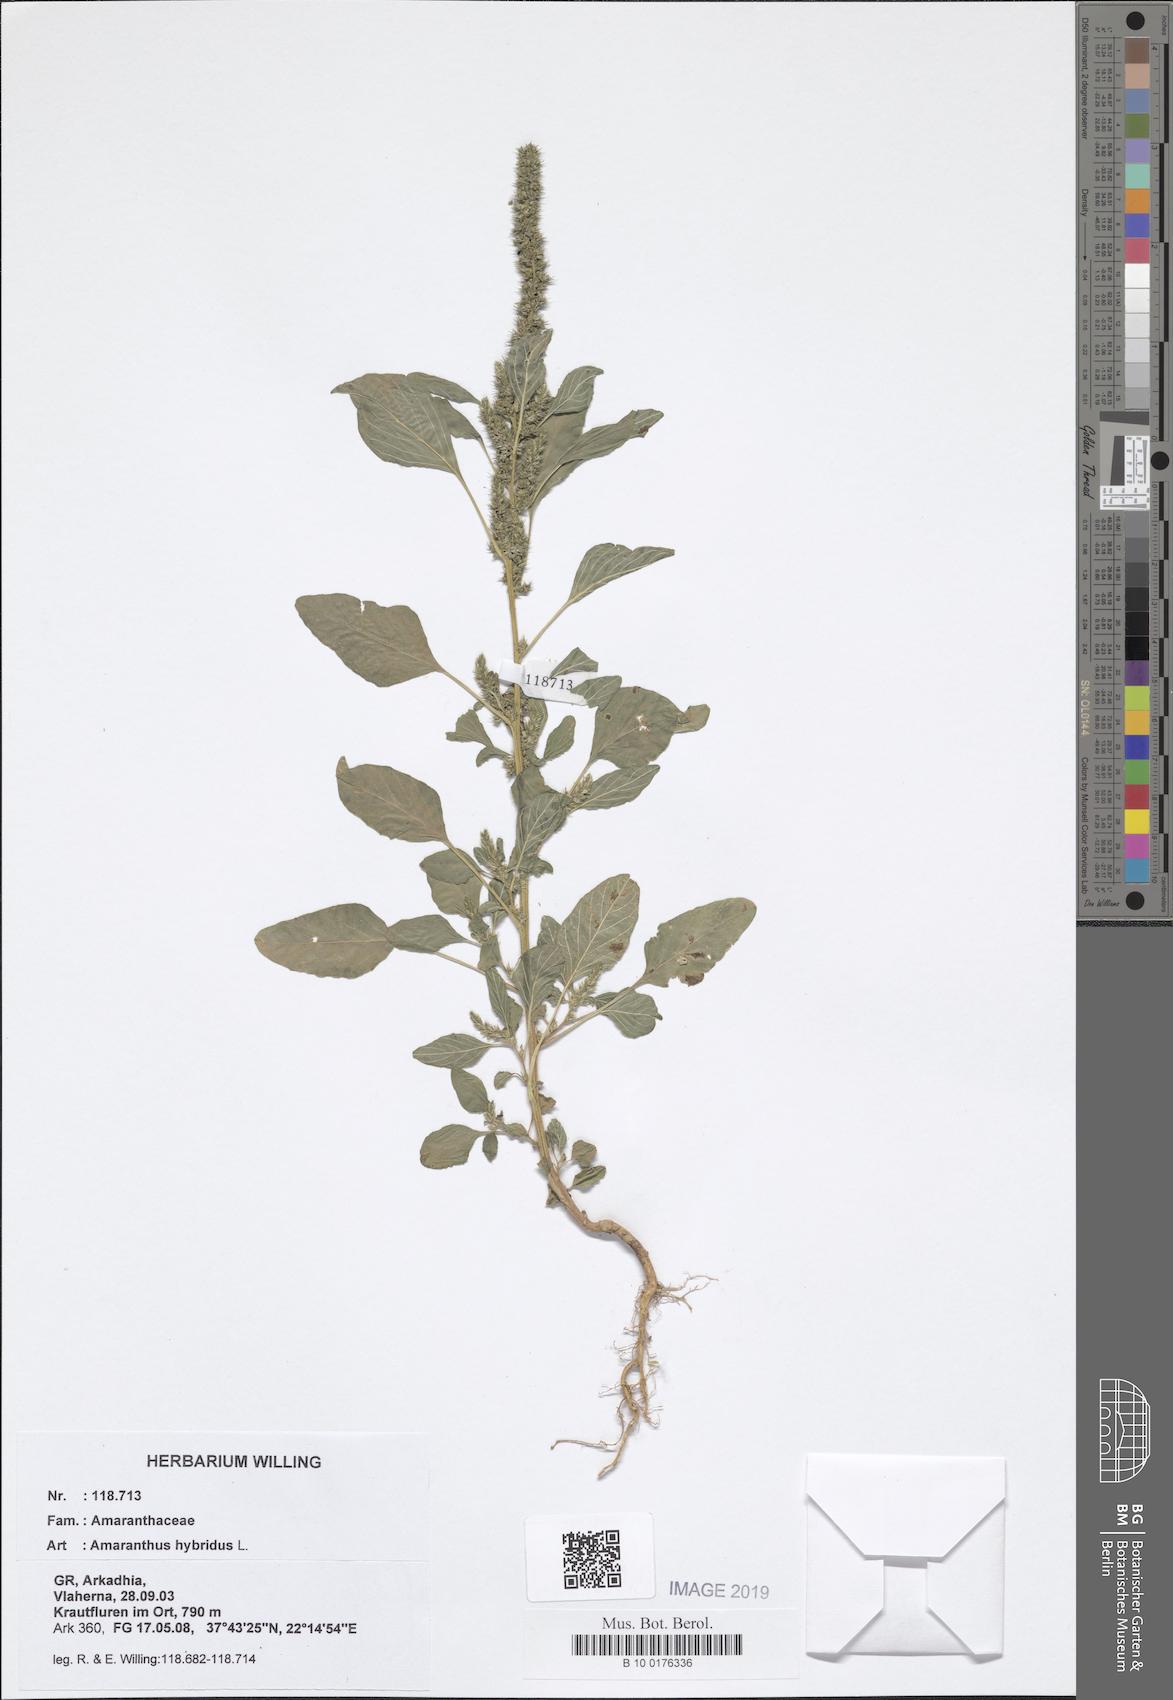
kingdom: Plantae
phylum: Tracheophyta
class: Magnoliopsida
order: Caryophyllales
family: Amaranthaceae
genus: Amaranthus
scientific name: Amaranthus hybridus
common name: Green amaranth
